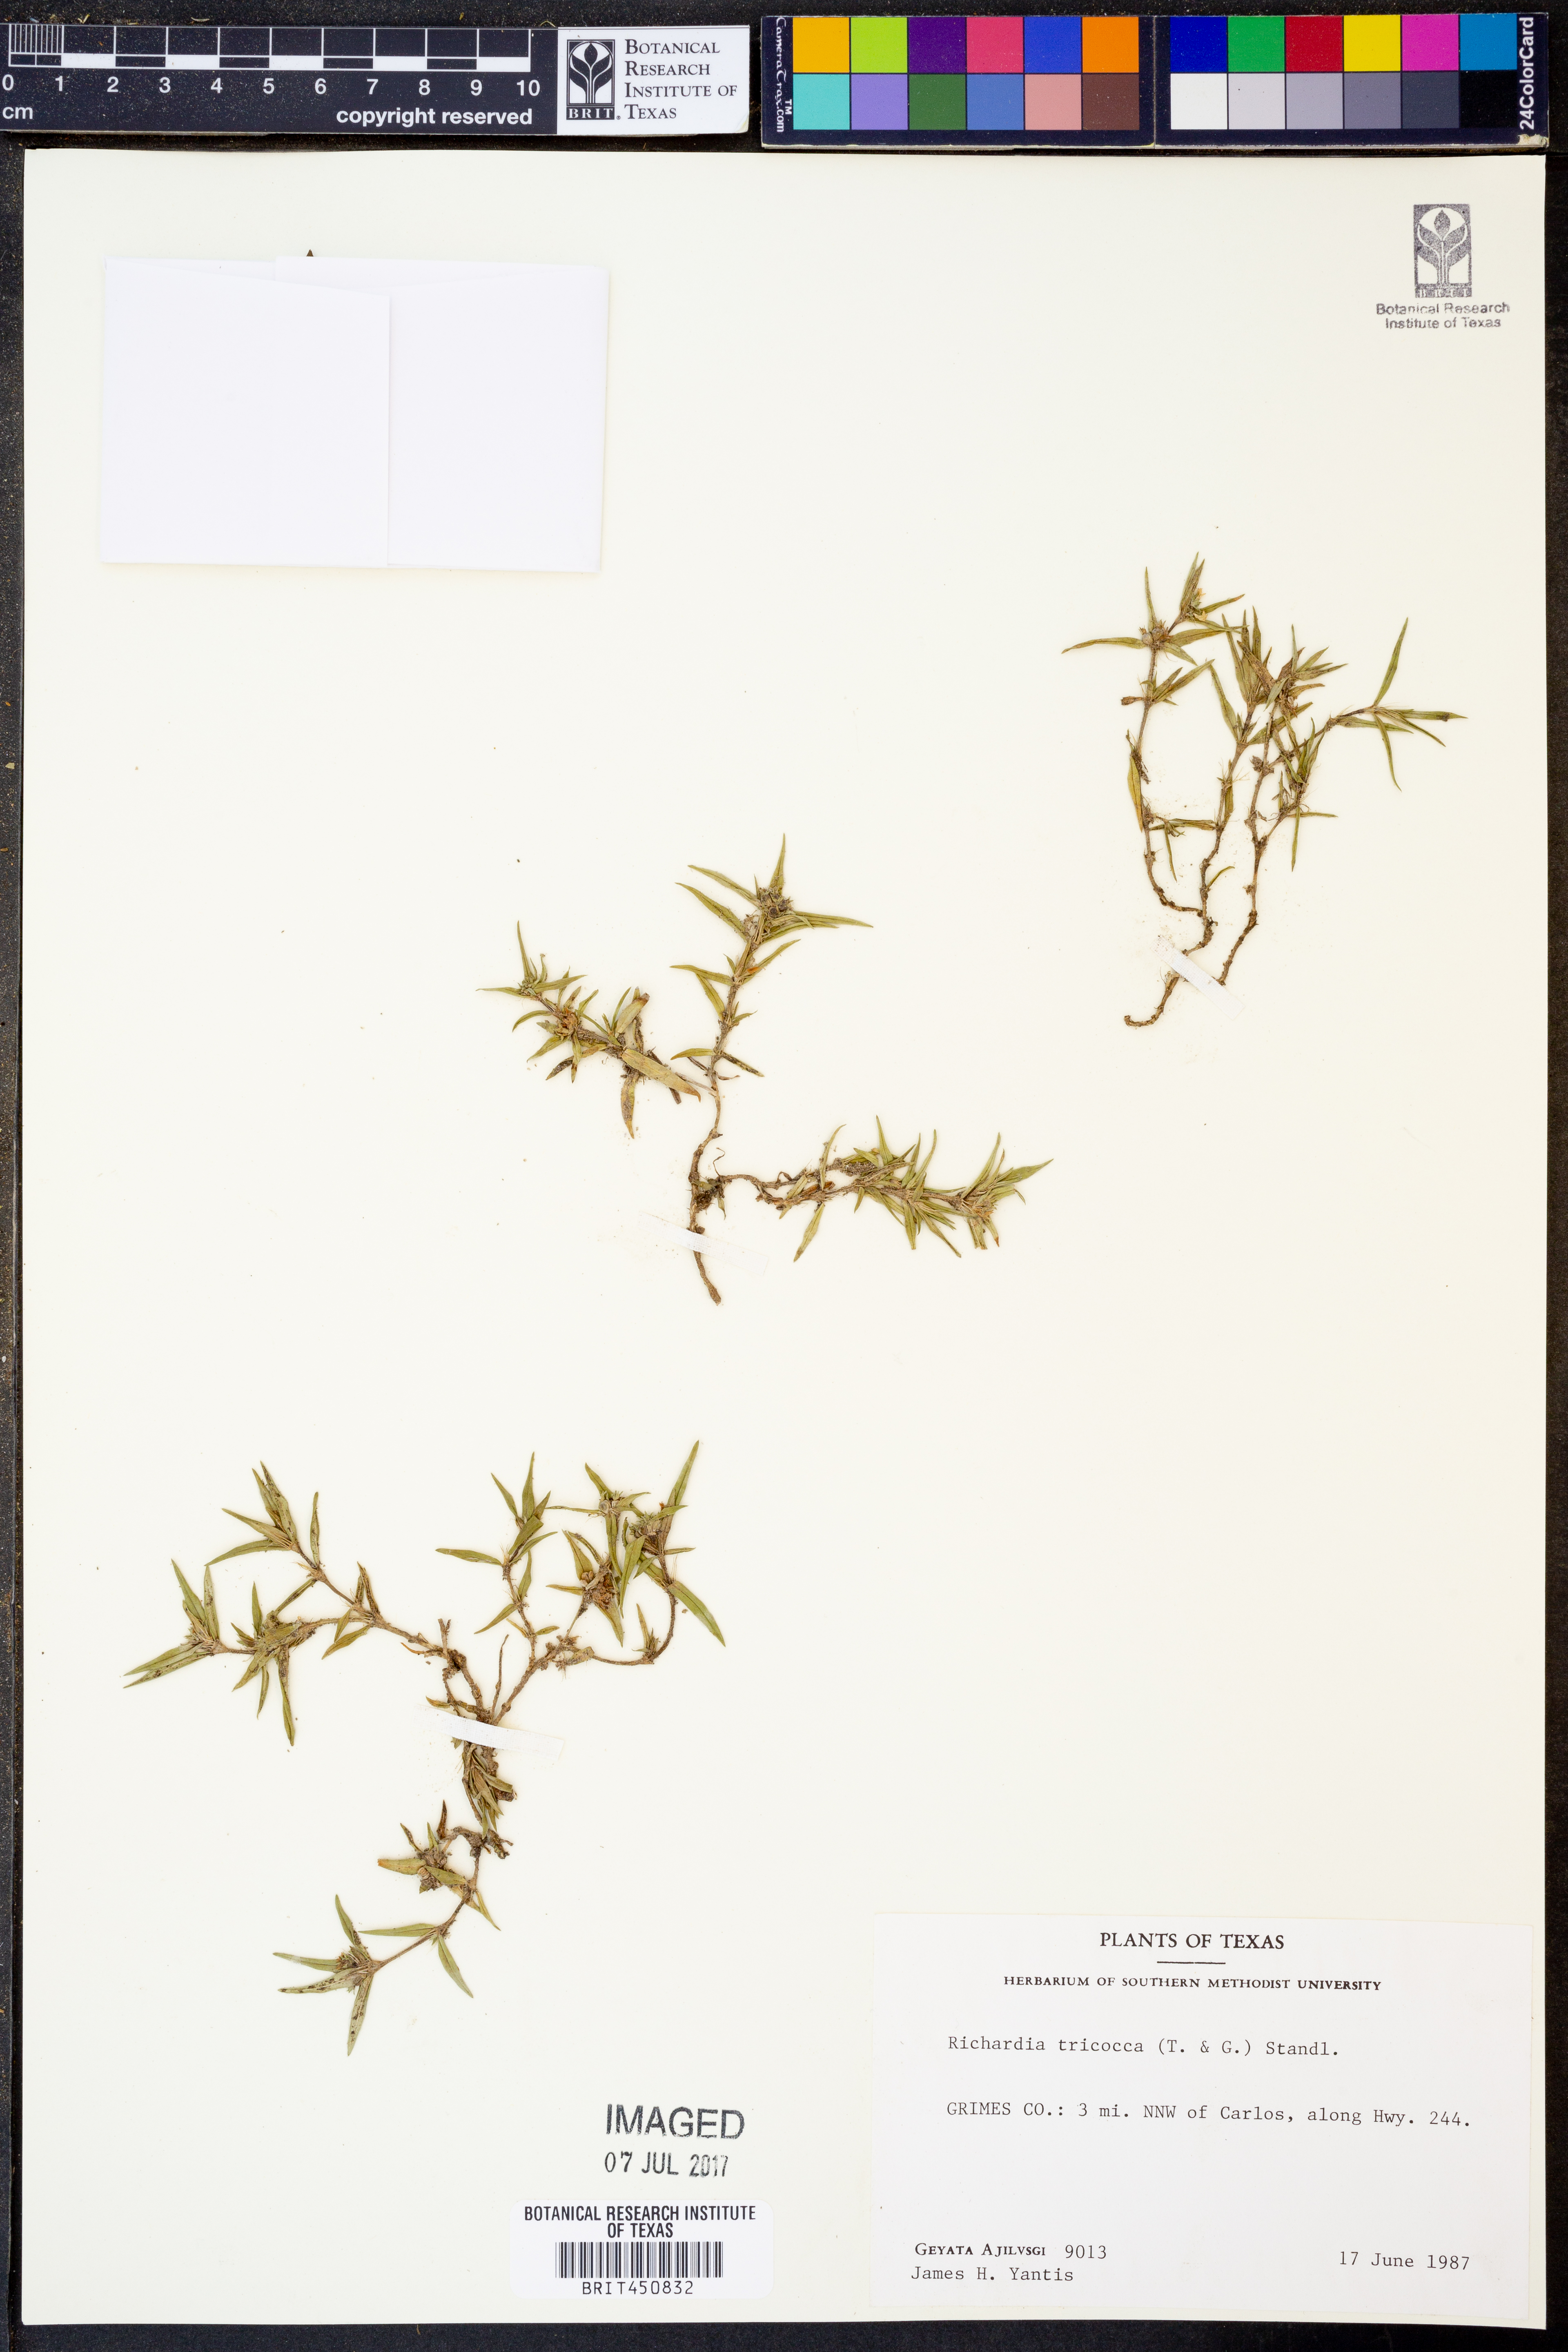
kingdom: Plantae
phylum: Tracheophyta
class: Magnoliopsida
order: Gentianales
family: Rubiaceae
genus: Richardia
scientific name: Richardia tricocca
